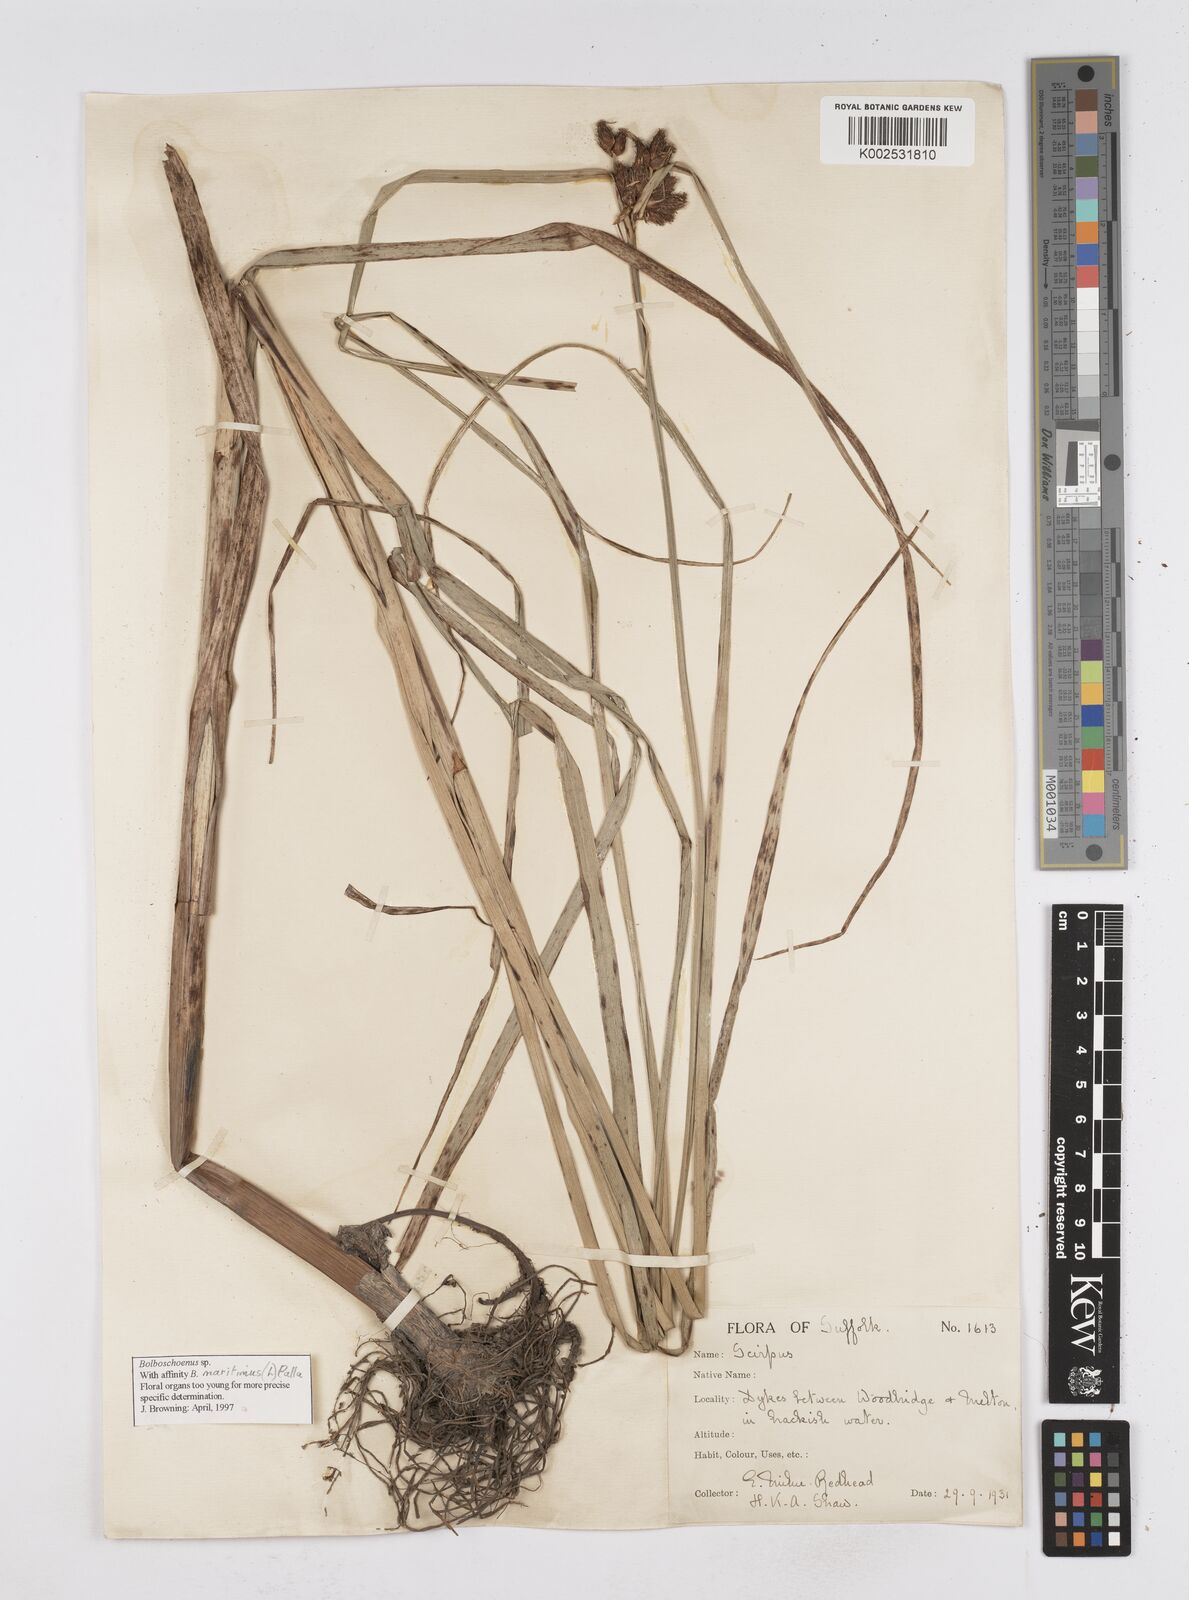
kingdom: Plantae
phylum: Tracheophyta
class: Liliopsida
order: Poales
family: Cyperaceae
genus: Bolboschoenus
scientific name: Bolboschoenus maritimus
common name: Sea club-rush
